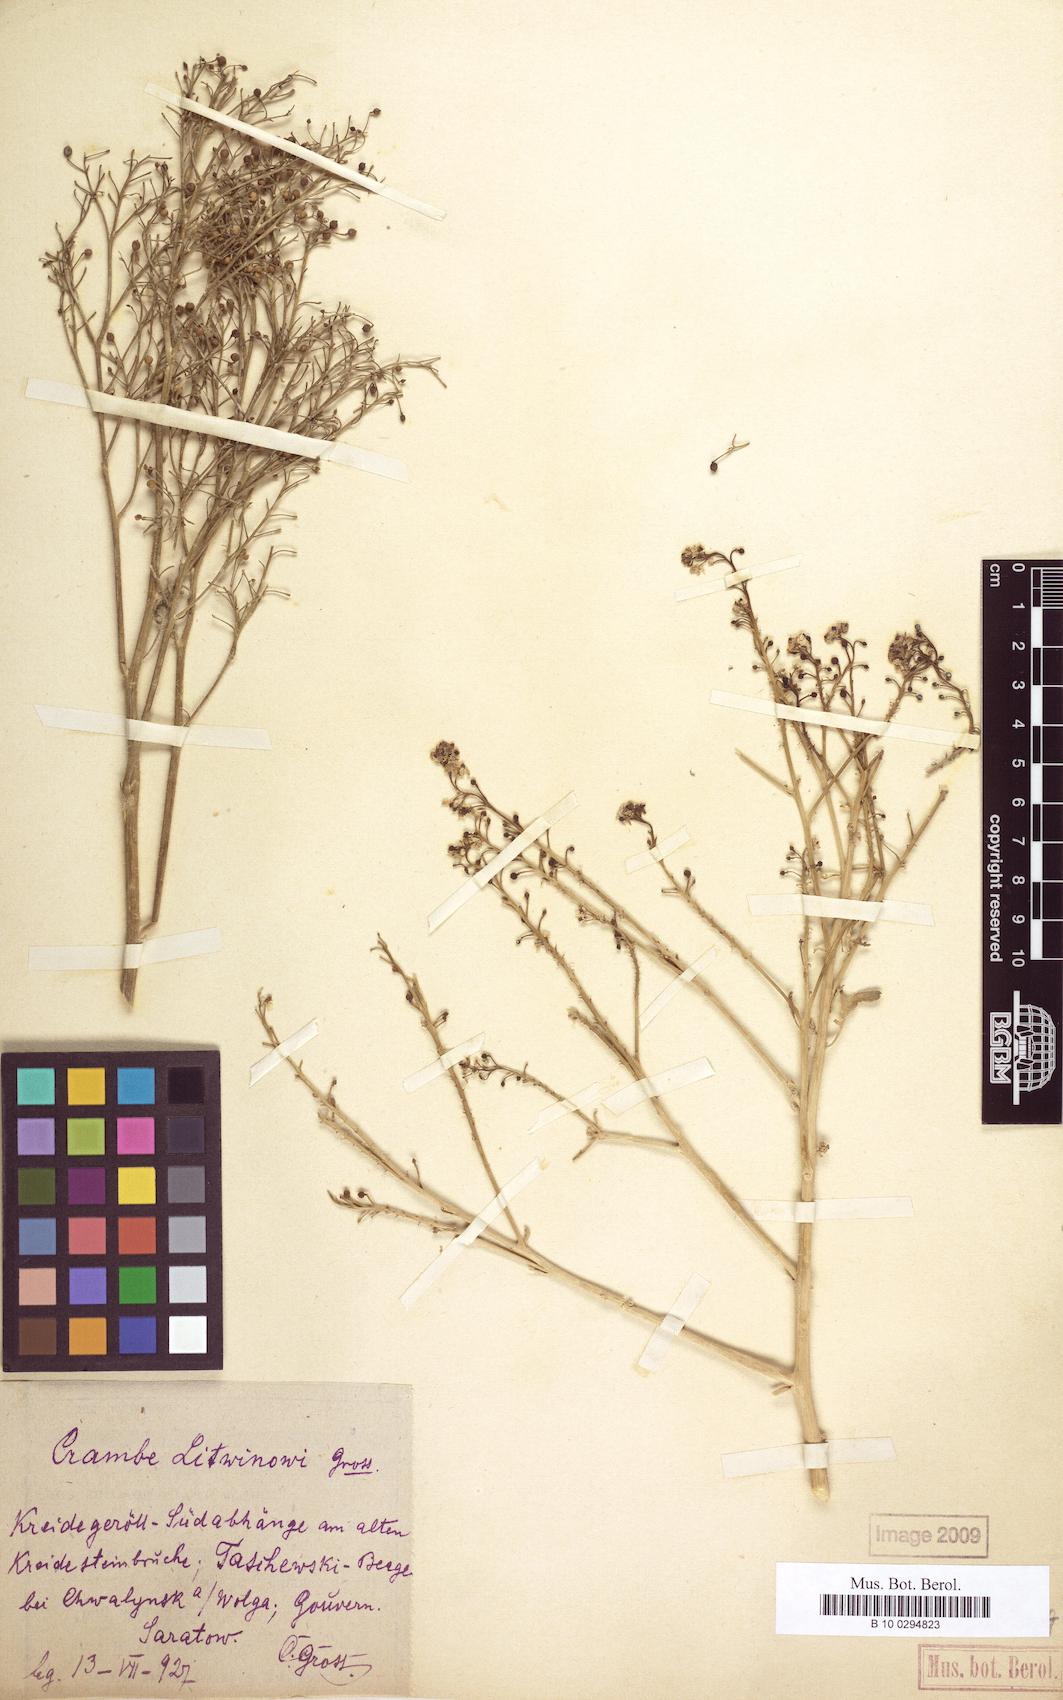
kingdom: Plantae
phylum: Tracheophyta
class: Magnoliopsida
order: Brassicales
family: Brassicaceae
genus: Crambe
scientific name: Crambe tataria
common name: Tartarian breadplant
